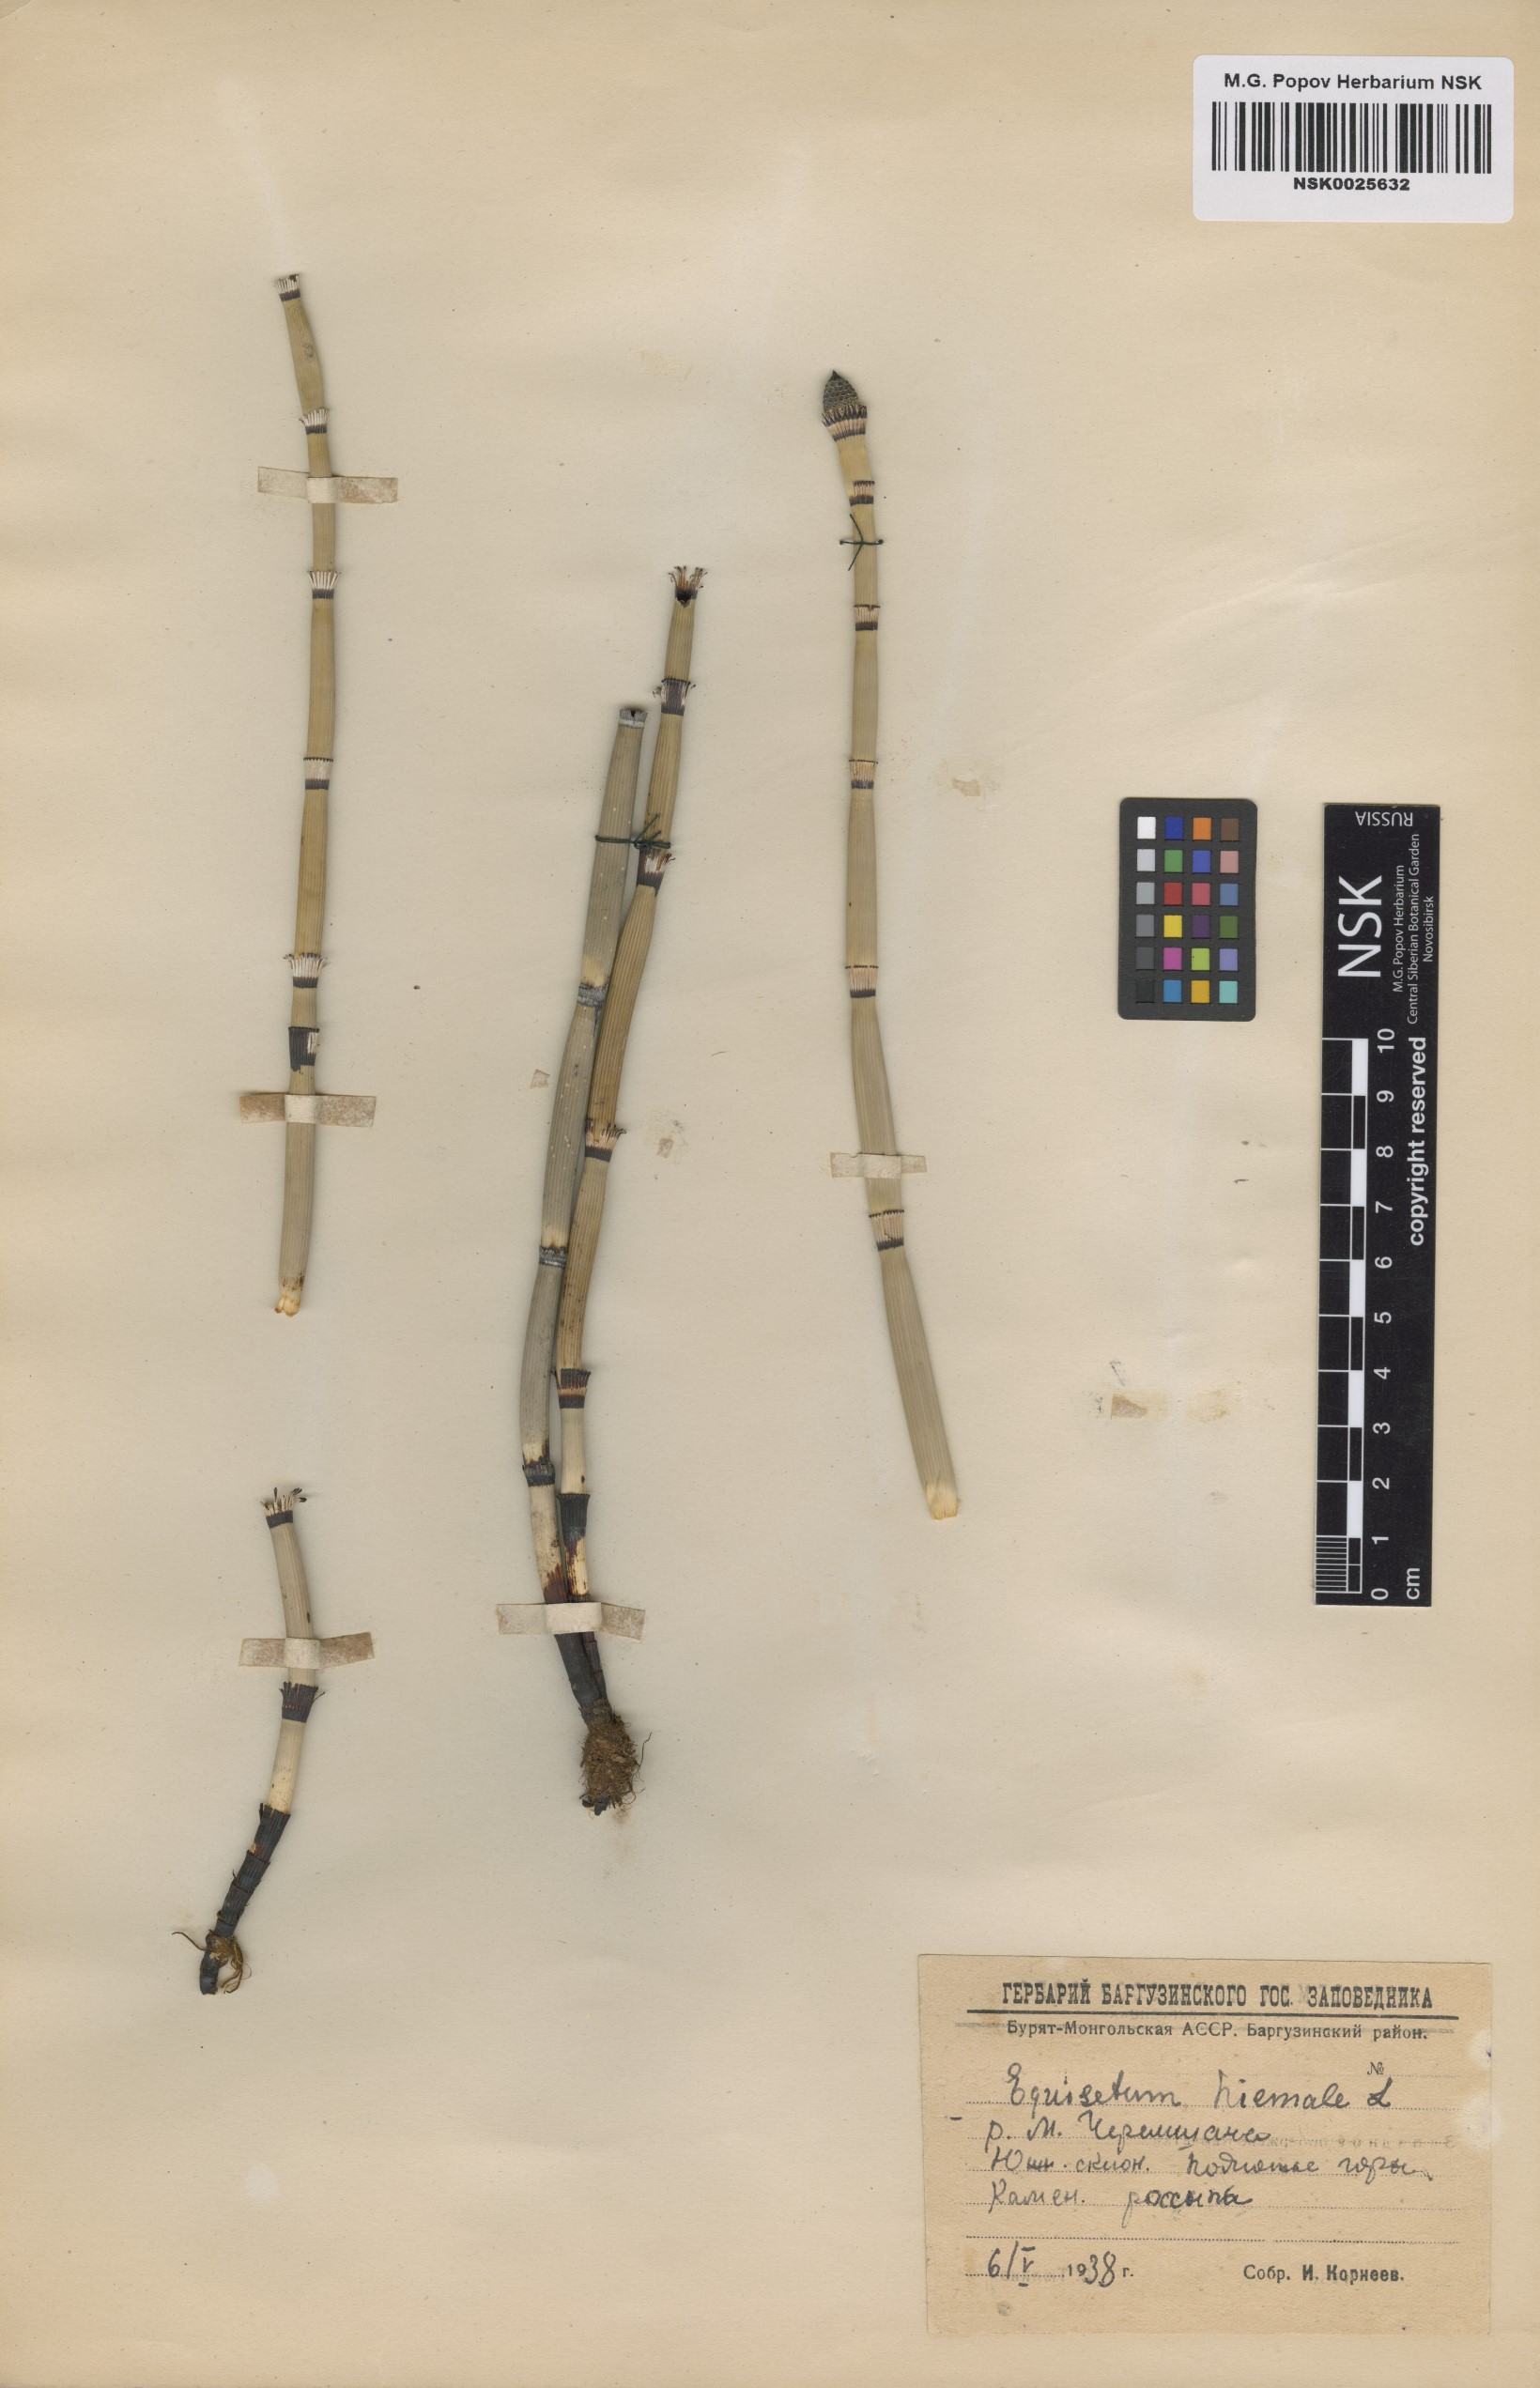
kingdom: Plantae
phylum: Tracheophyta
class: Polypodiopsida
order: Equisetales
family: Equisetaceae
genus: Equisetum
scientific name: Equisetum hyemale
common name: Rough horsetail
